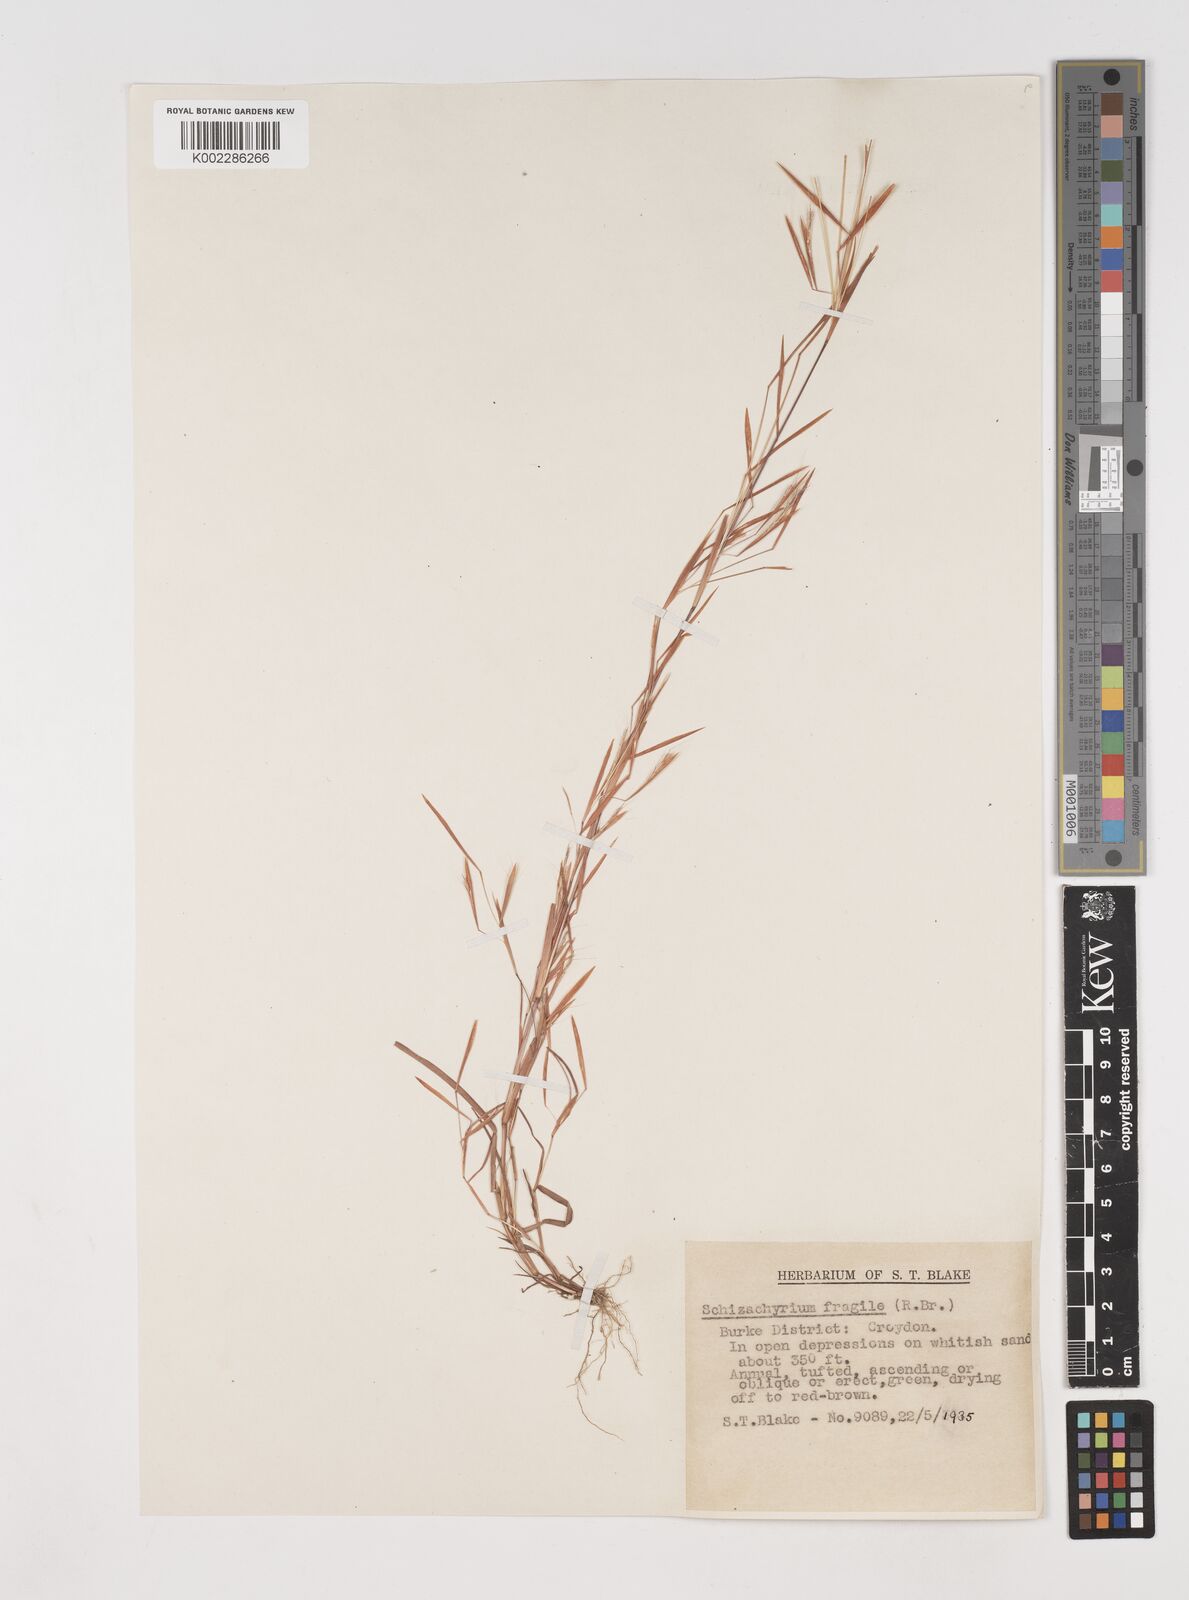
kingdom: Plantae
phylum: Tracheophyta
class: Liliopsida
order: Poales
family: Poaceae
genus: Schizachyrium
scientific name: Schizachyrium pseudeulalia
